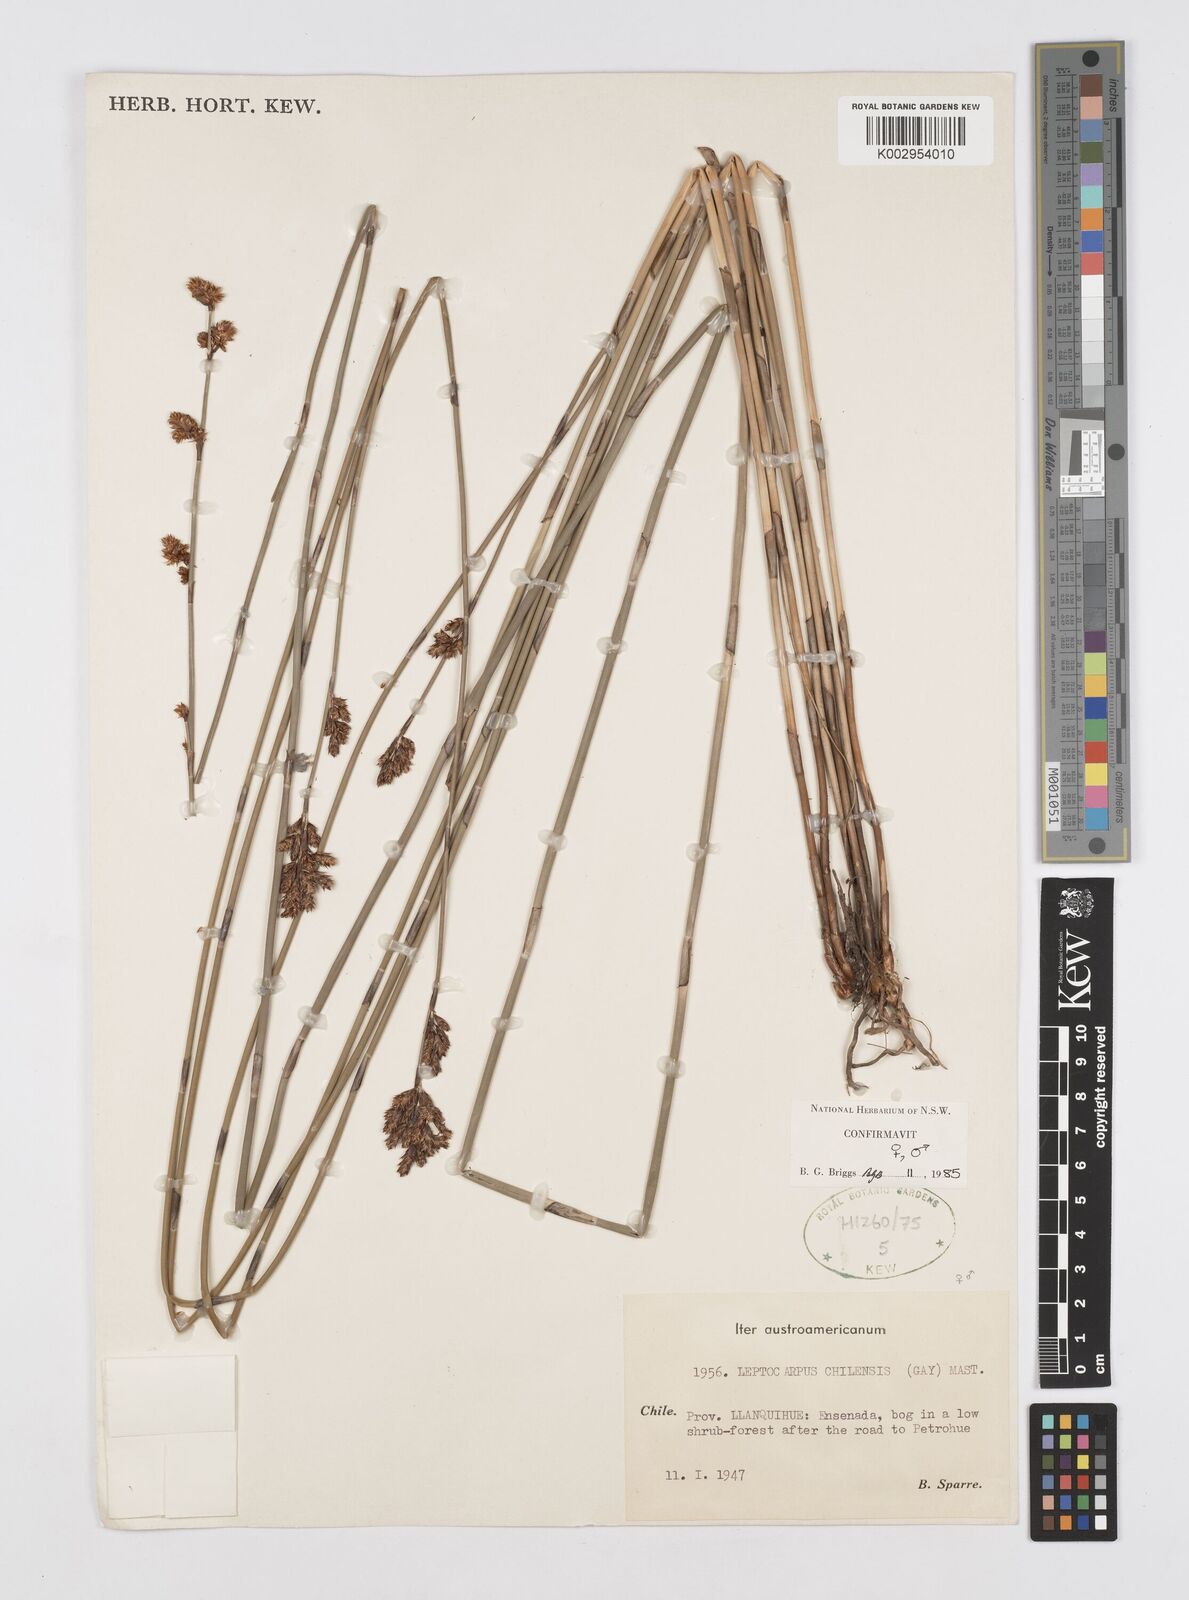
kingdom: Plantae
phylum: Tracheophyta
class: Liliopsida
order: Poales
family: Restionaceae
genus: Apodasmia
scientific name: Apodasmia chilensis
